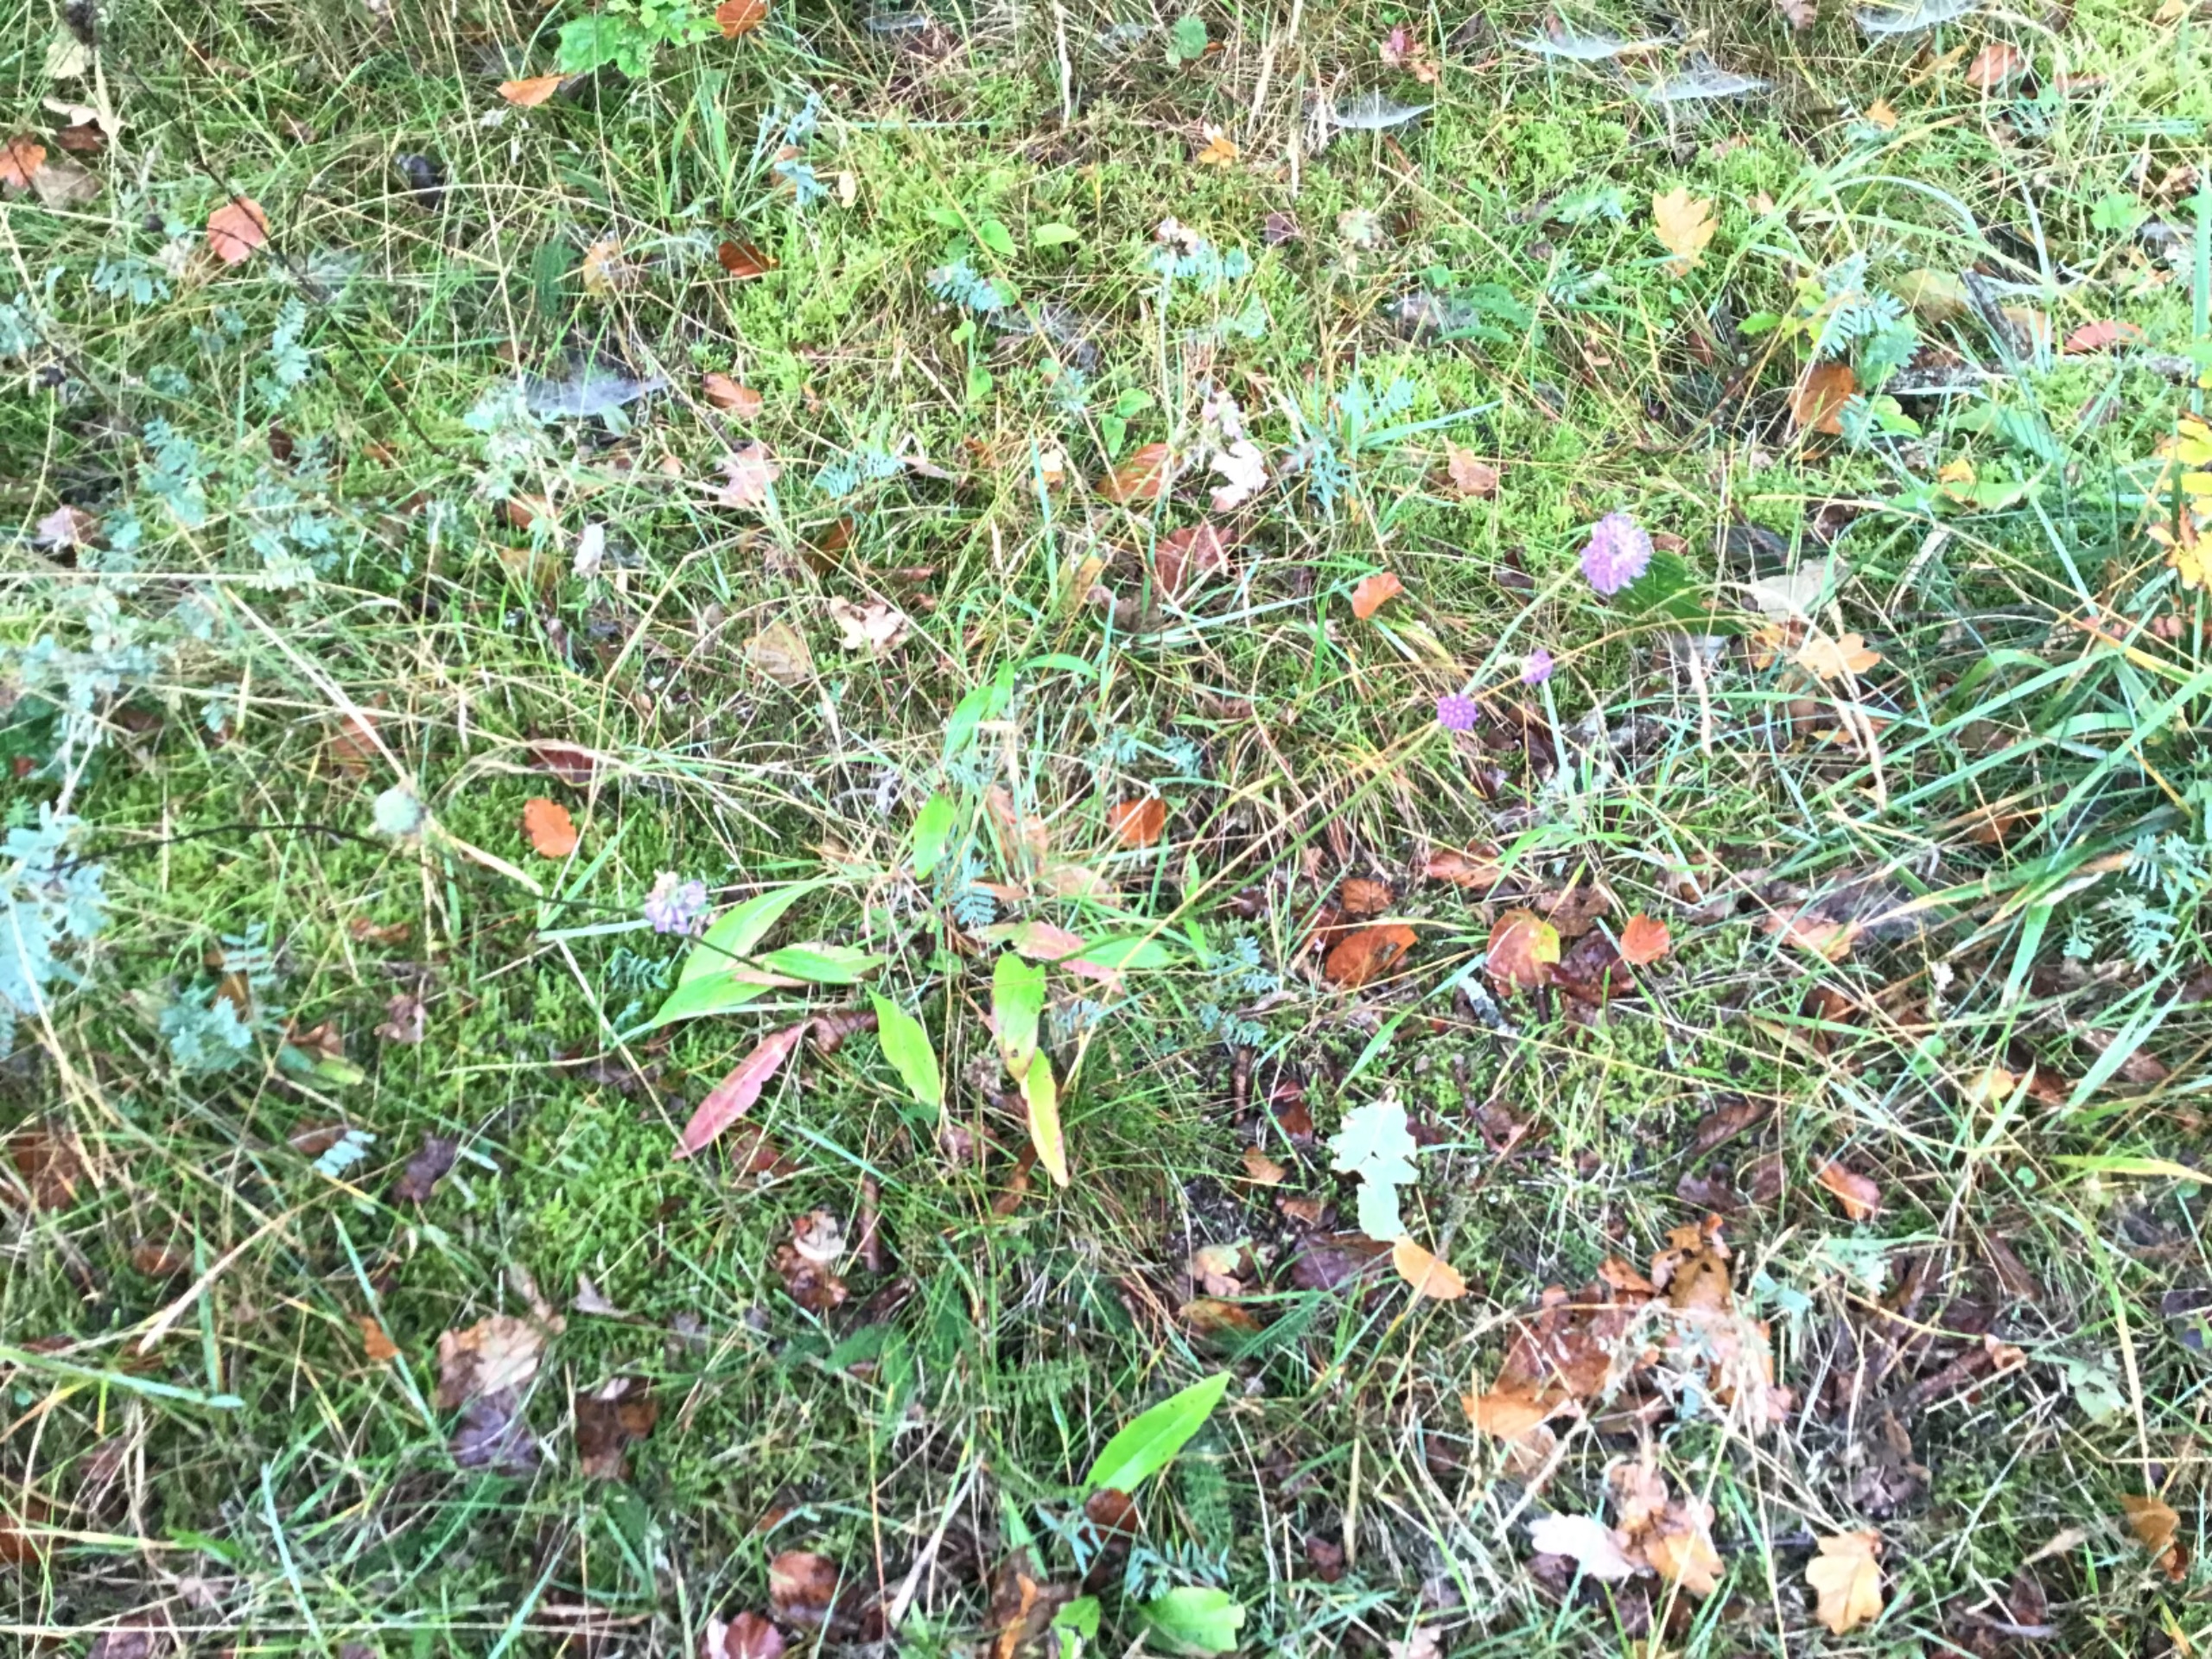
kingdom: Plantae
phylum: Tracheophyta
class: Magnoliopsida
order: Dipsacales
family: Caprifoliaceae
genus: Succisa
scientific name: Succisa pratensis
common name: Djævelsbid
